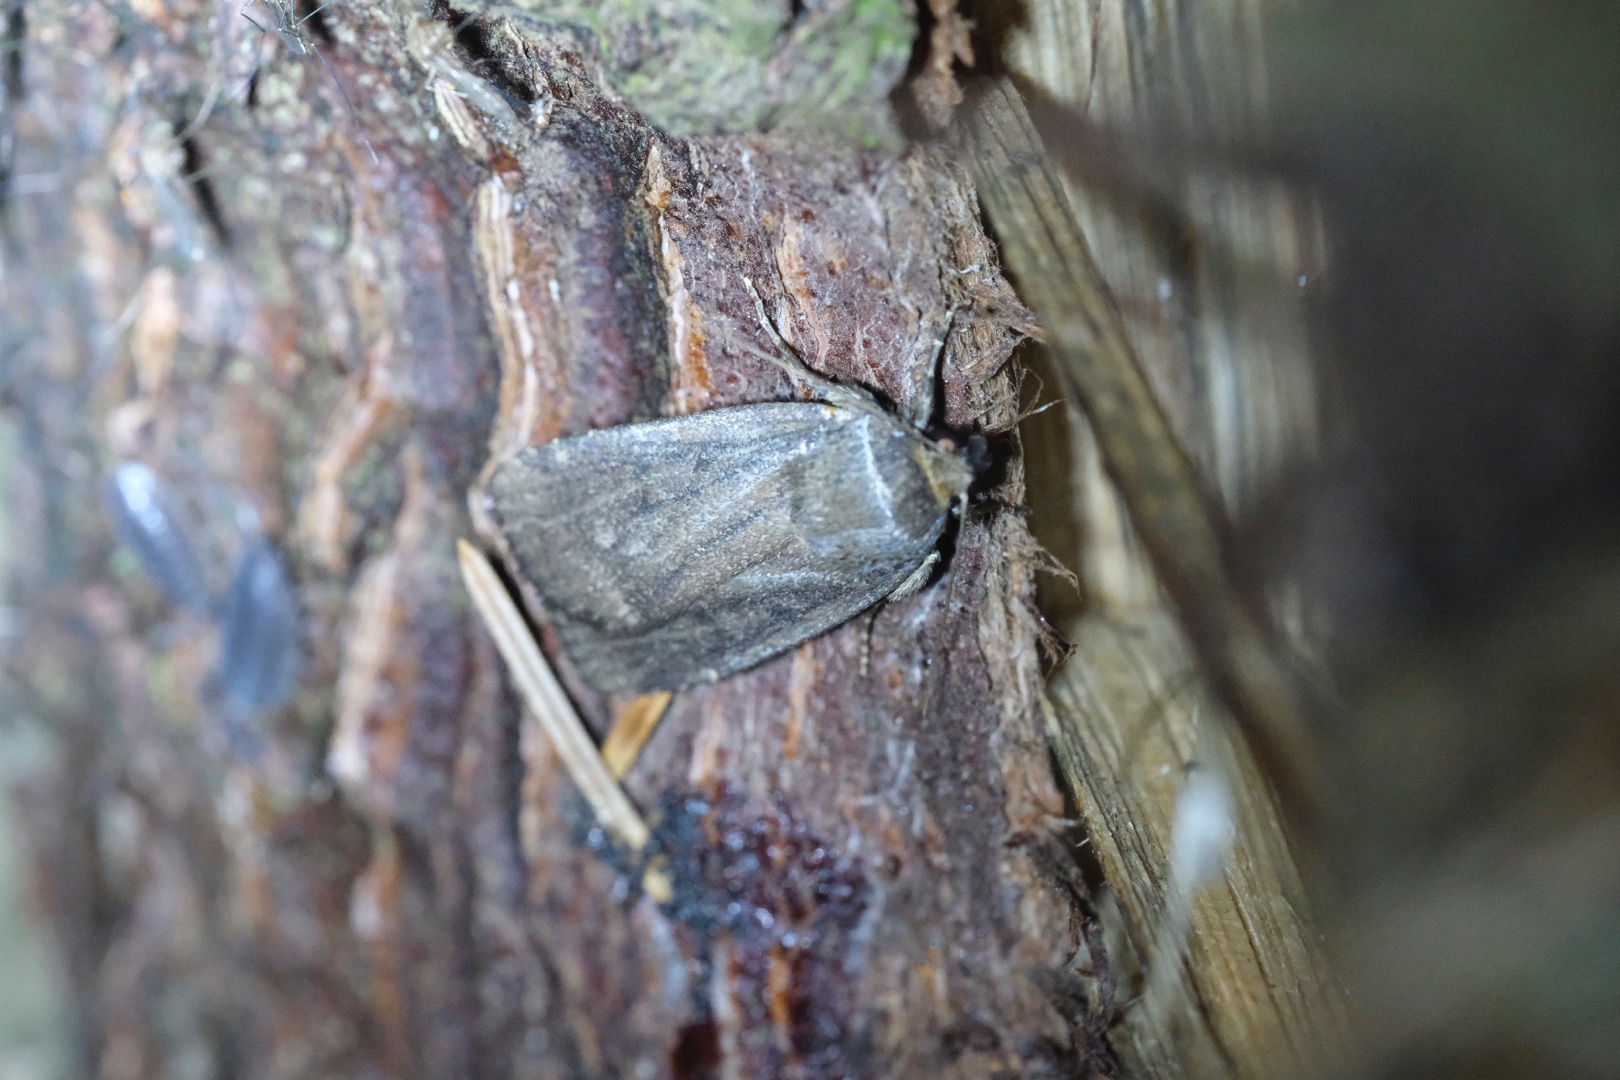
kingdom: Animalia
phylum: Arthropoda
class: Insecta
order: Lepidoptera
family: Noctuidae
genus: Amphipyra
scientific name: Amphipyra tragopoginis
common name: Blyantsugle
